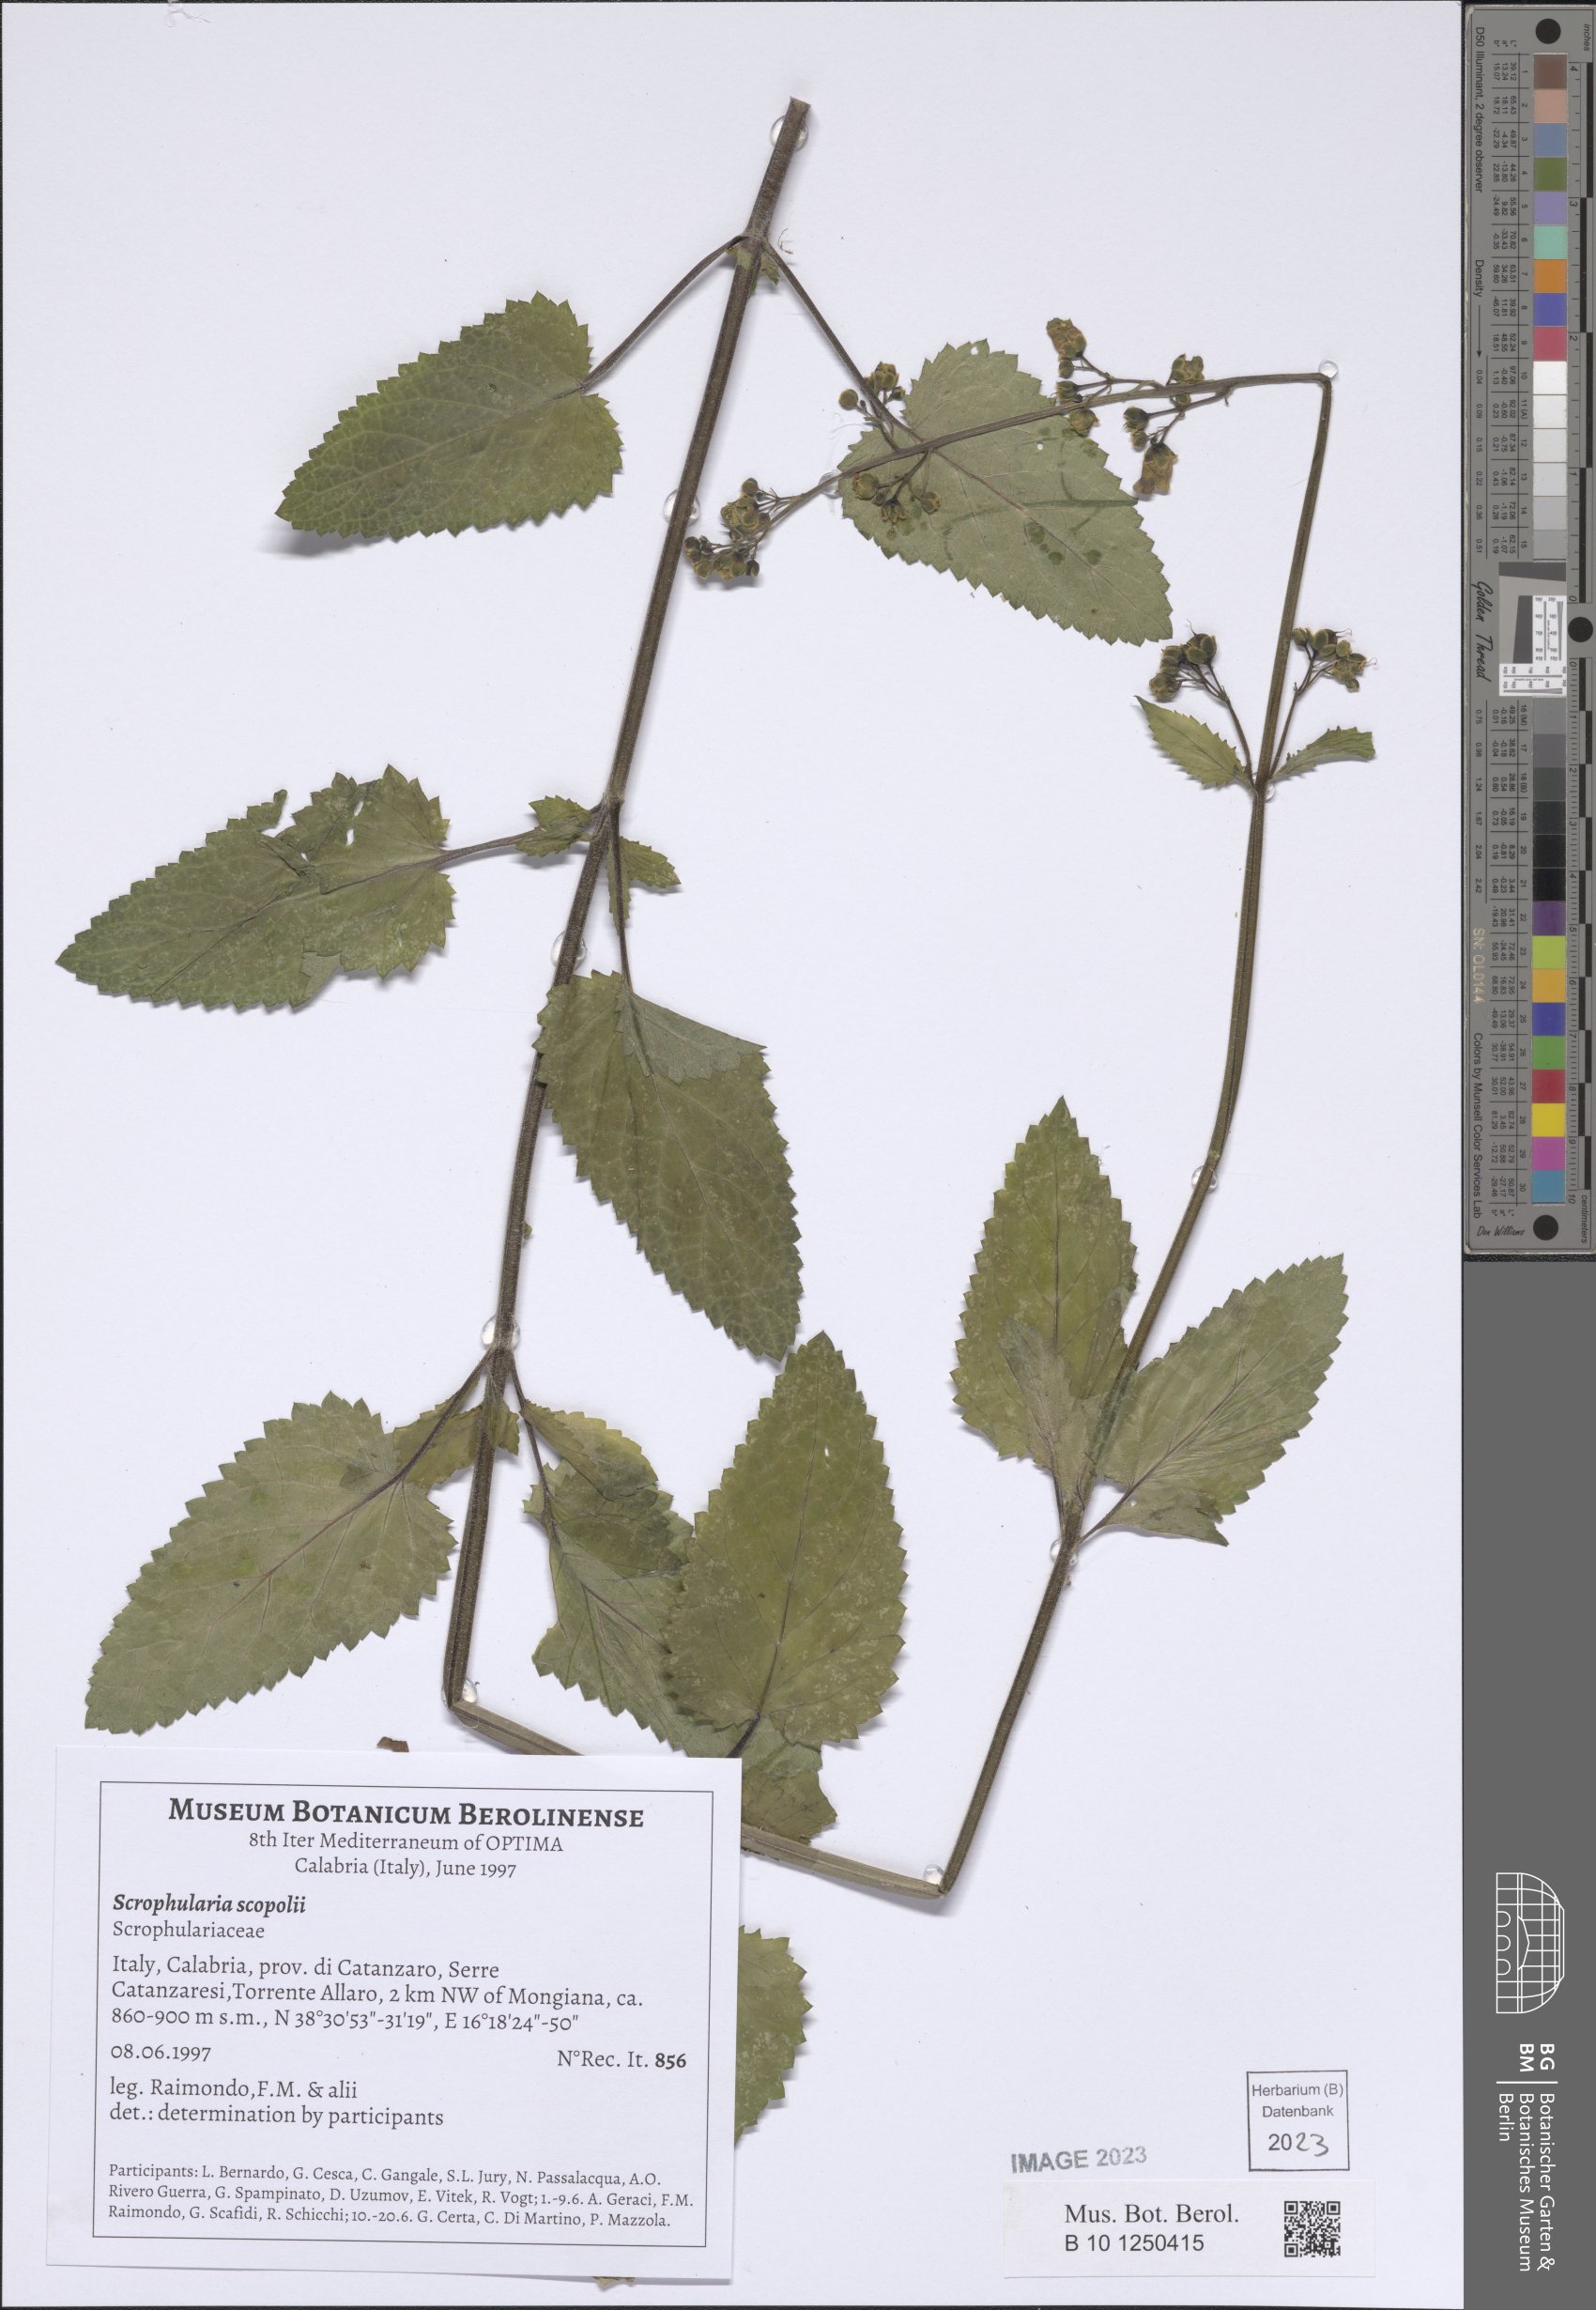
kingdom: Plantae
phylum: Tracheophyta
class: Magnoliopsida
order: Lamiales
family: Scrophulariaceae
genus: Scrophularia
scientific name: Scrophularia scopolii
